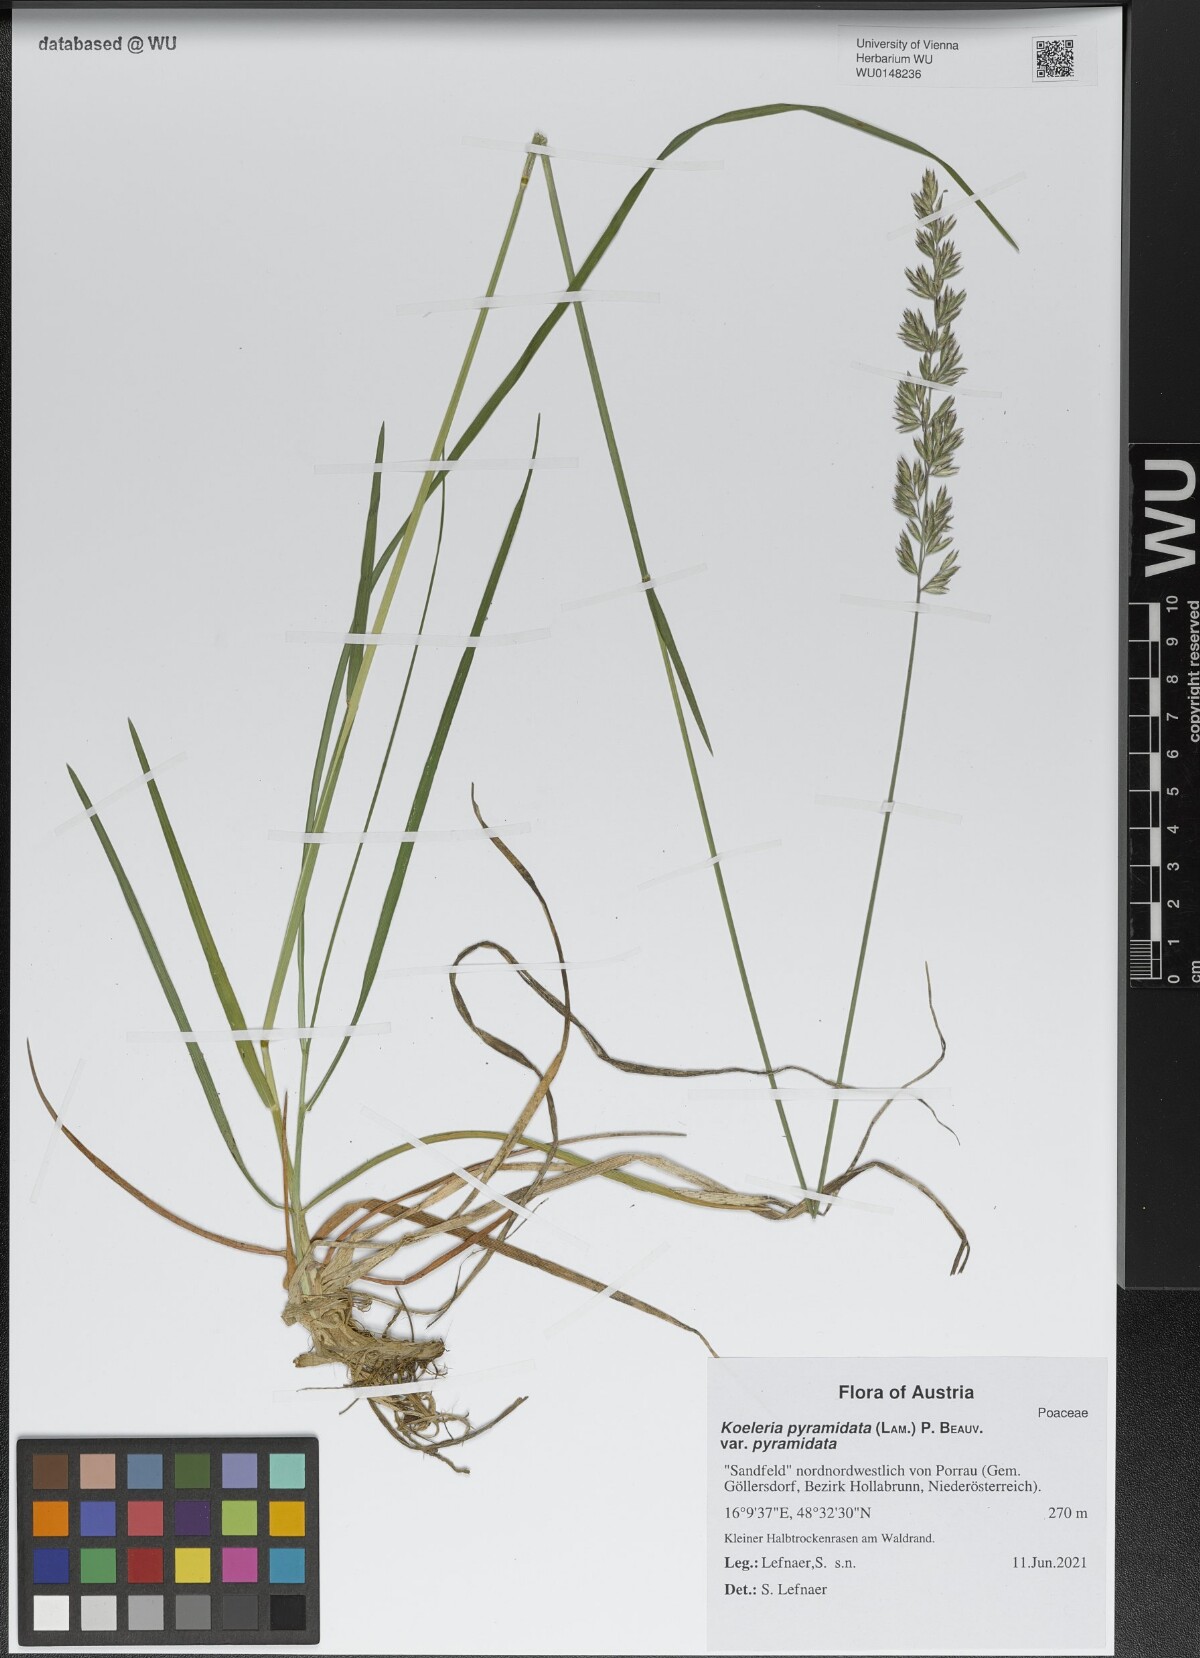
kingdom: Plantae
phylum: Tracheophyta
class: Liliopsida
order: Poales
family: Poaceae
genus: Koeleria
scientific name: Koeleria pyramidata
